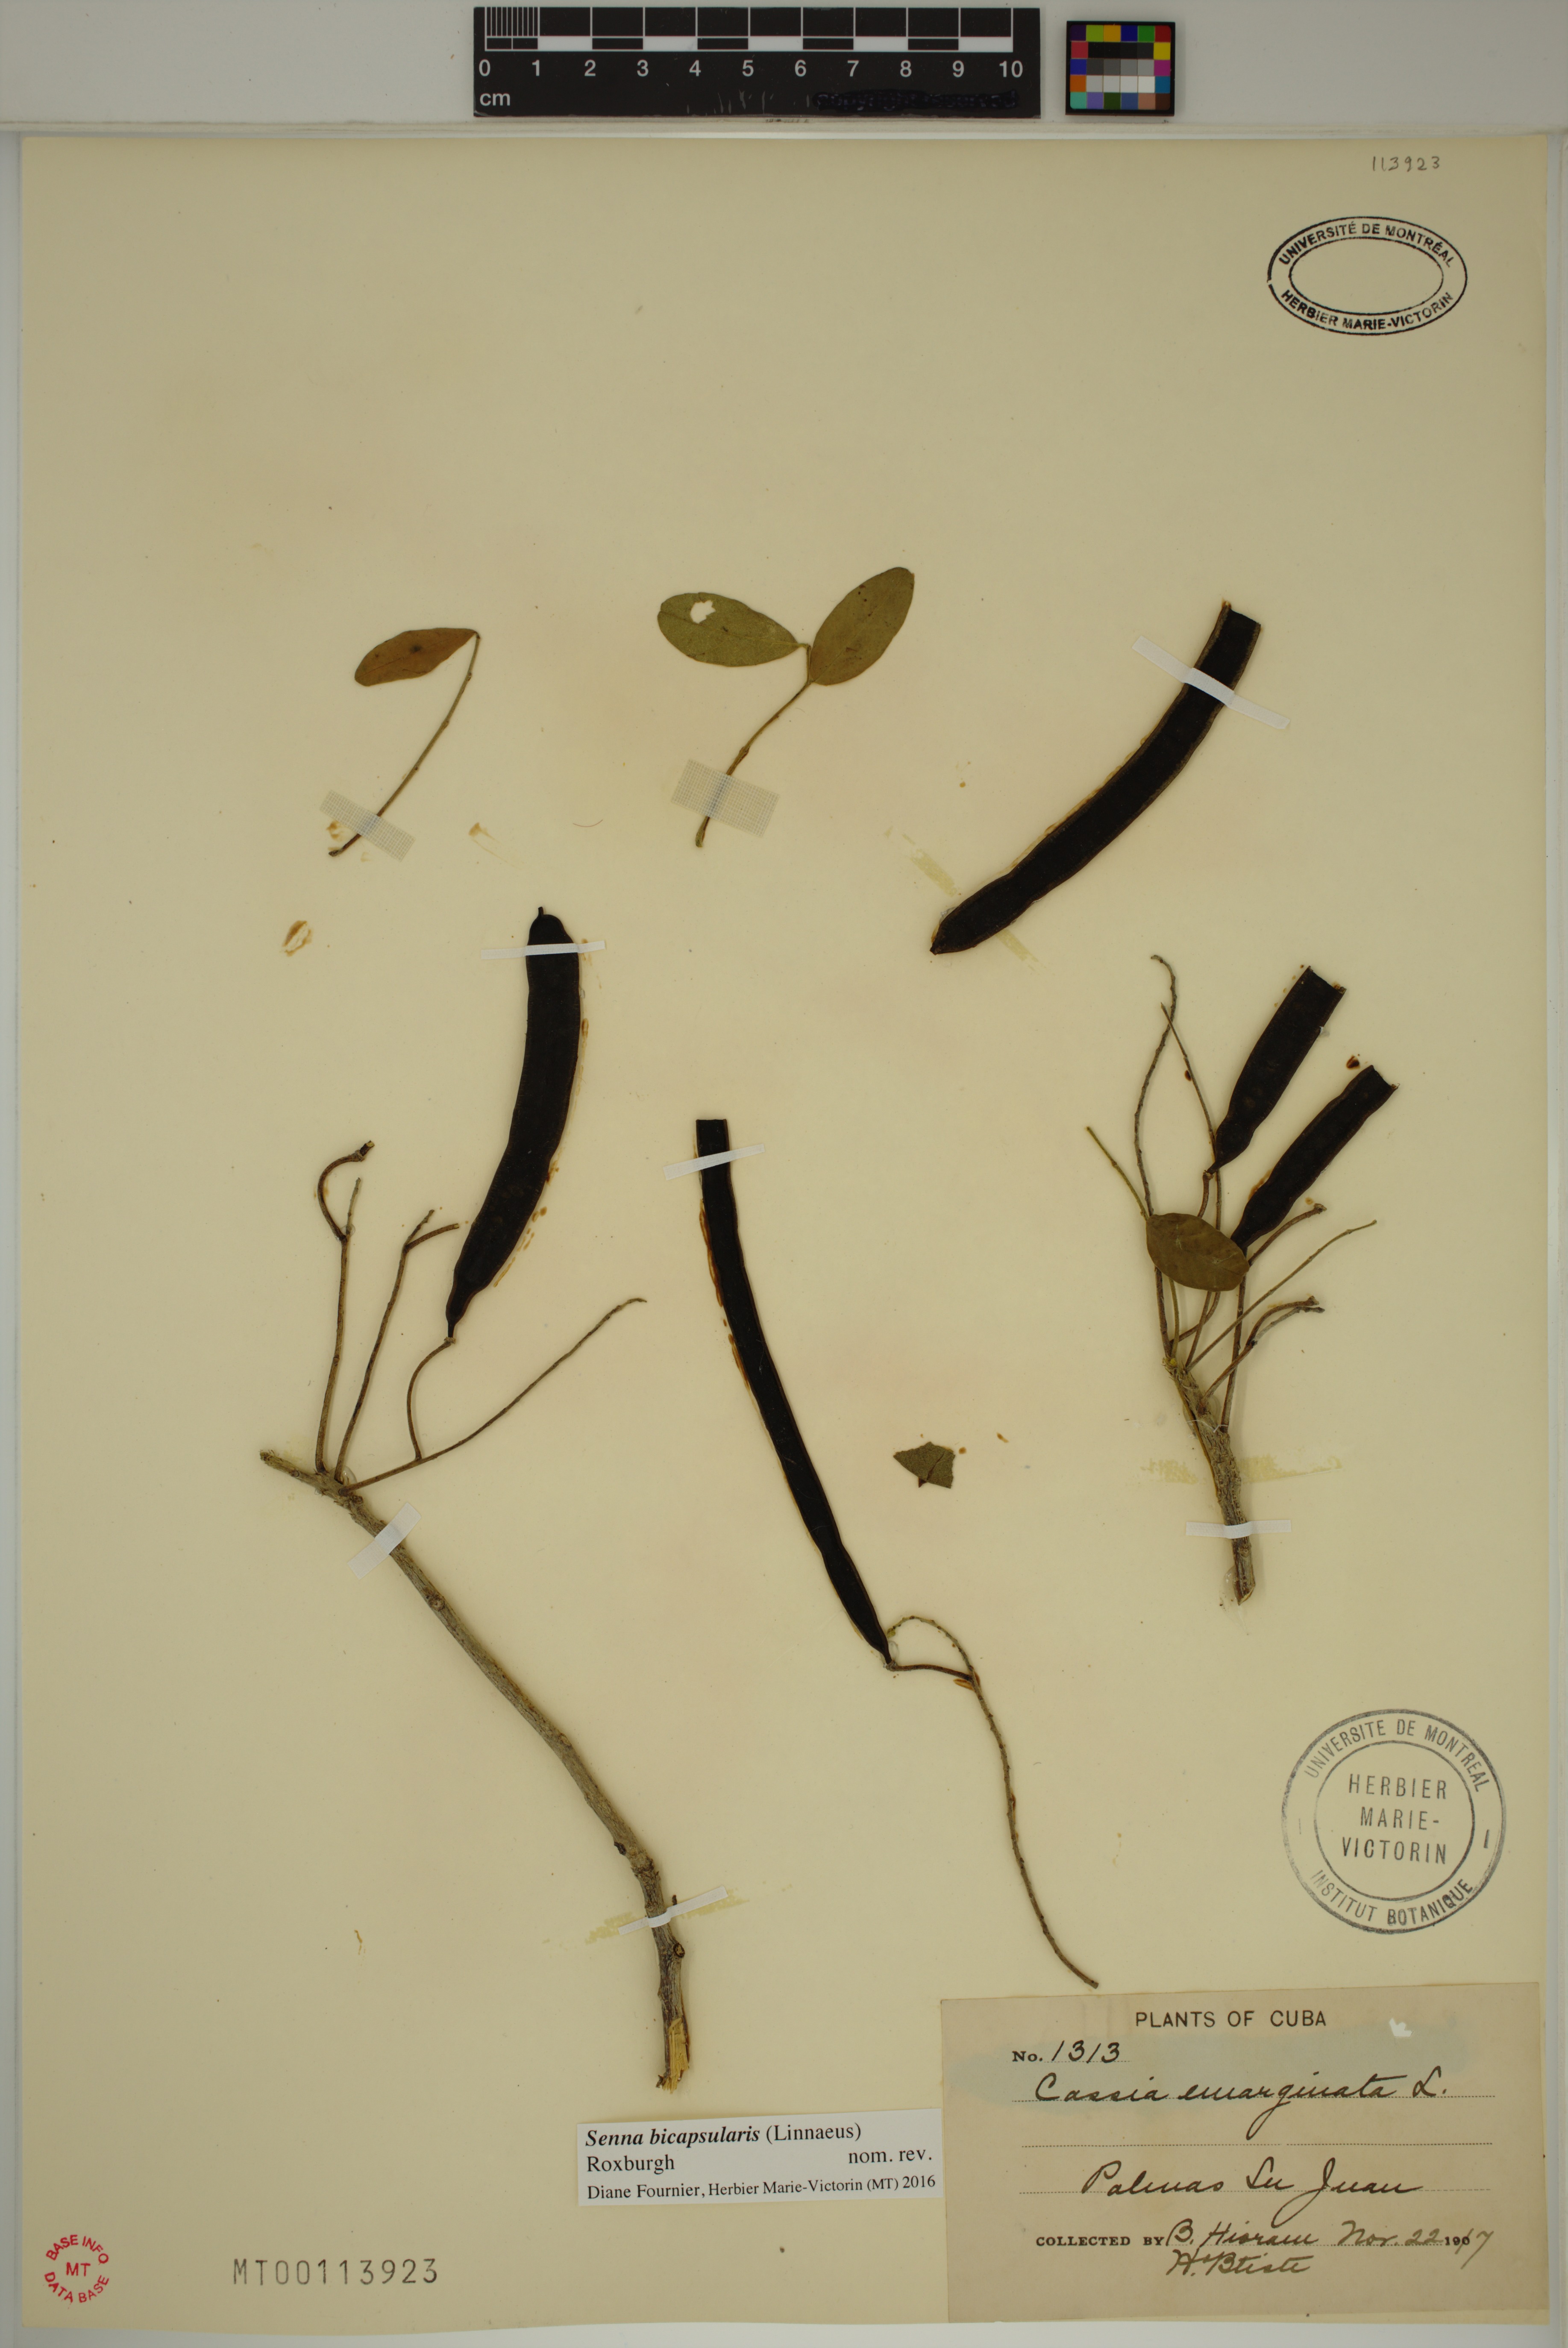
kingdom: Plantae
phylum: Tracheophyta
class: Magnoliopsida
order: Fabales
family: Fabaceae
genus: Senna
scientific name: Senna bicapsularis
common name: Christmasbush
